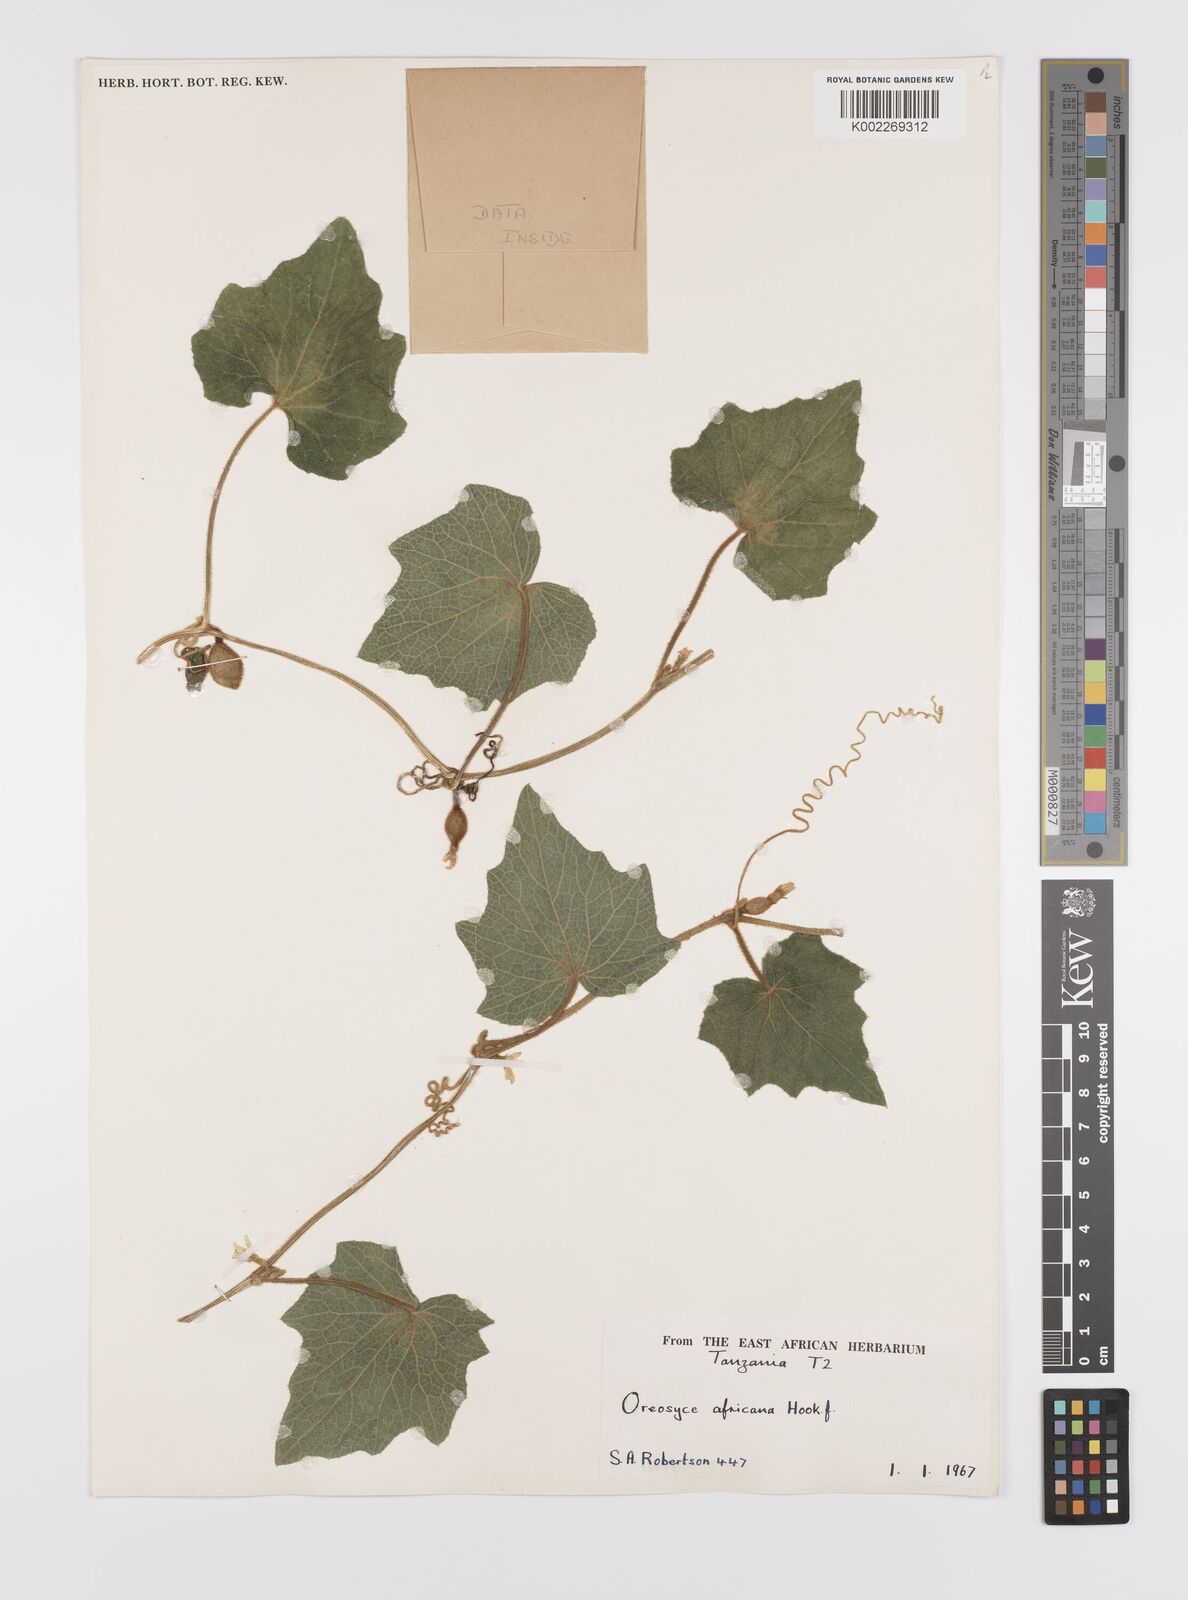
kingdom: Plantae
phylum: Tracheophyta
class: Magnoliopsida
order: Cucurbitales
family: Cucurbitaceae
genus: Cucumis
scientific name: Cucumis oreosyce
